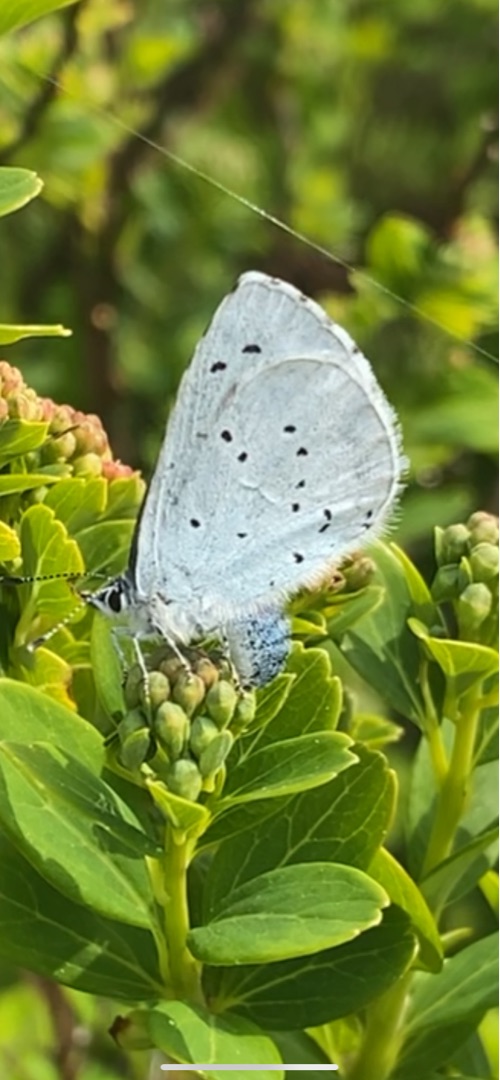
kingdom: Animalia
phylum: Arthropoda
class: Insecta
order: Lepidoptera
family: Lycaenidae
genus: Celastrina
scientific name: Celastrina argiolus
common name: Skovblåfugl
